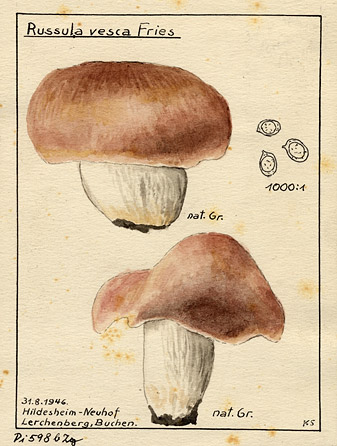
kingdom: Fungi
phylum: Basidiomycota
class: Agaricomycetes
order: Russulales
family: Russulaceae
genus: Russula
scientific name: Russula vesca
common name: Bare-toothed russula
